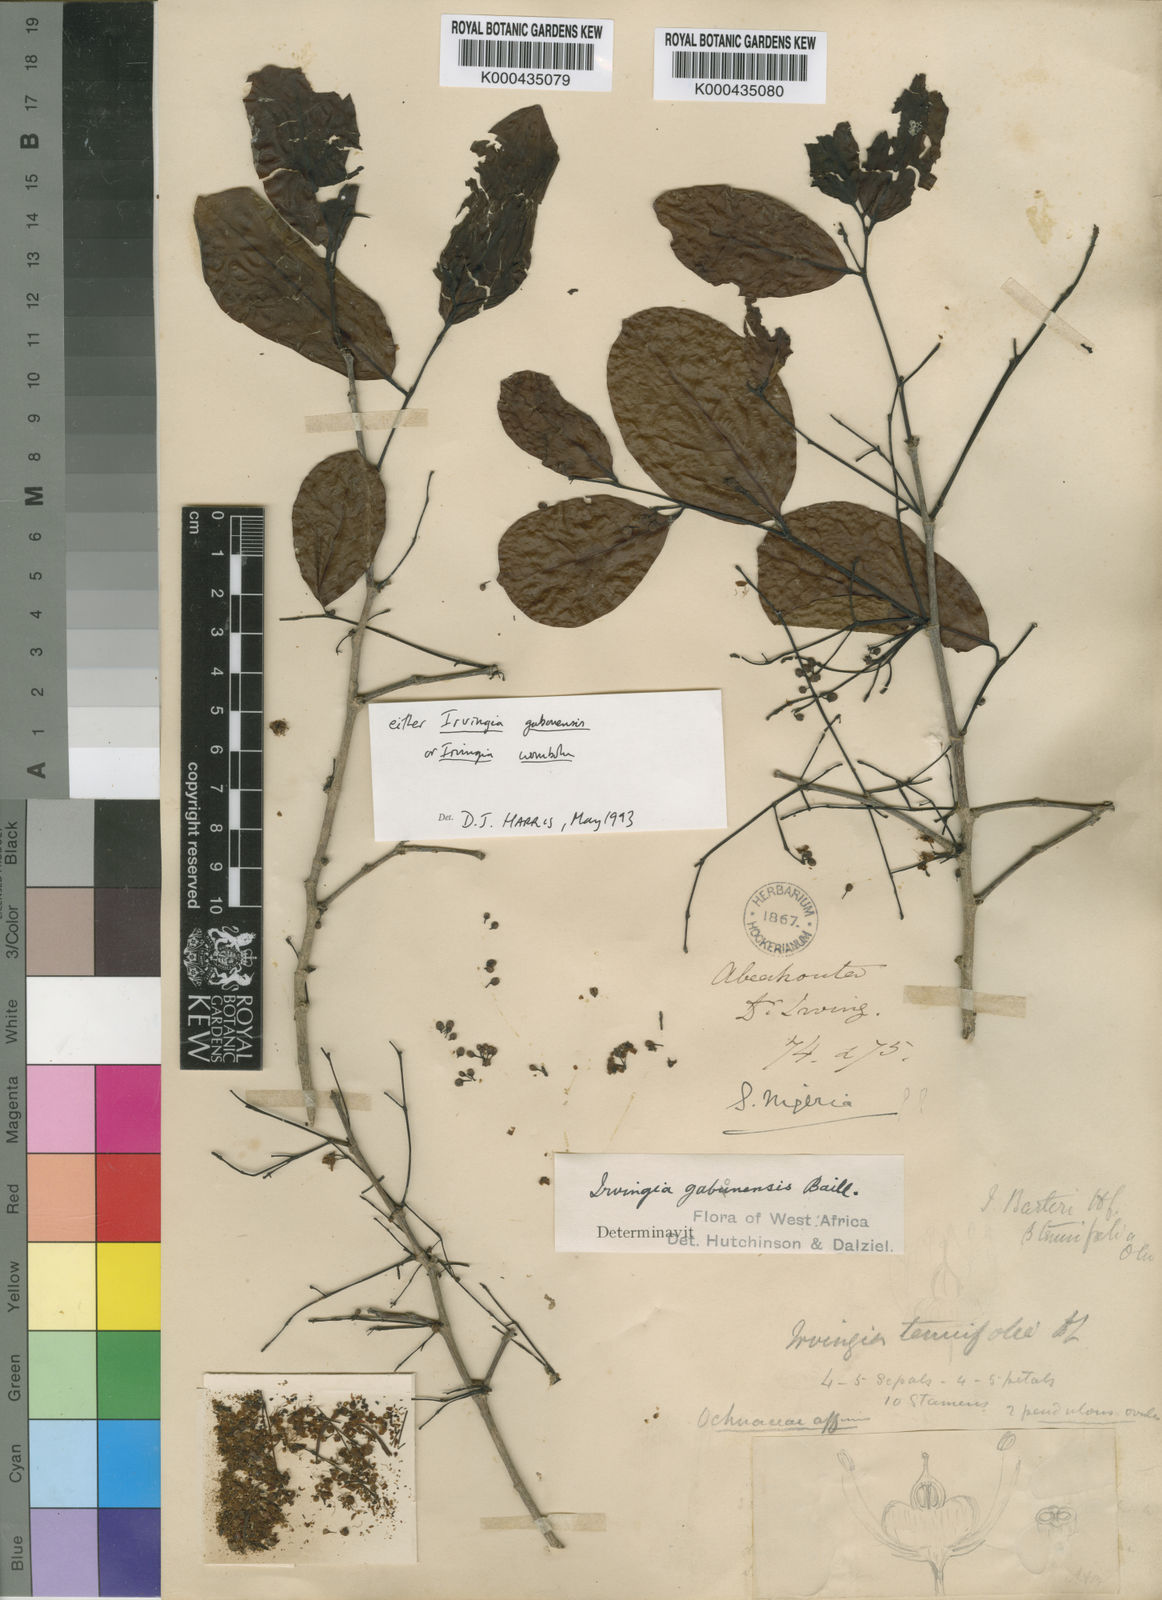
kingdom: Plantae
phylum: Tracheophyta
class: Magnoliopsida
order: Malpighiales
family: Irvingiaceae
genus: Irvingia
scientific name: Irvingia gabonensis
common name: Rainy season bush-mango
